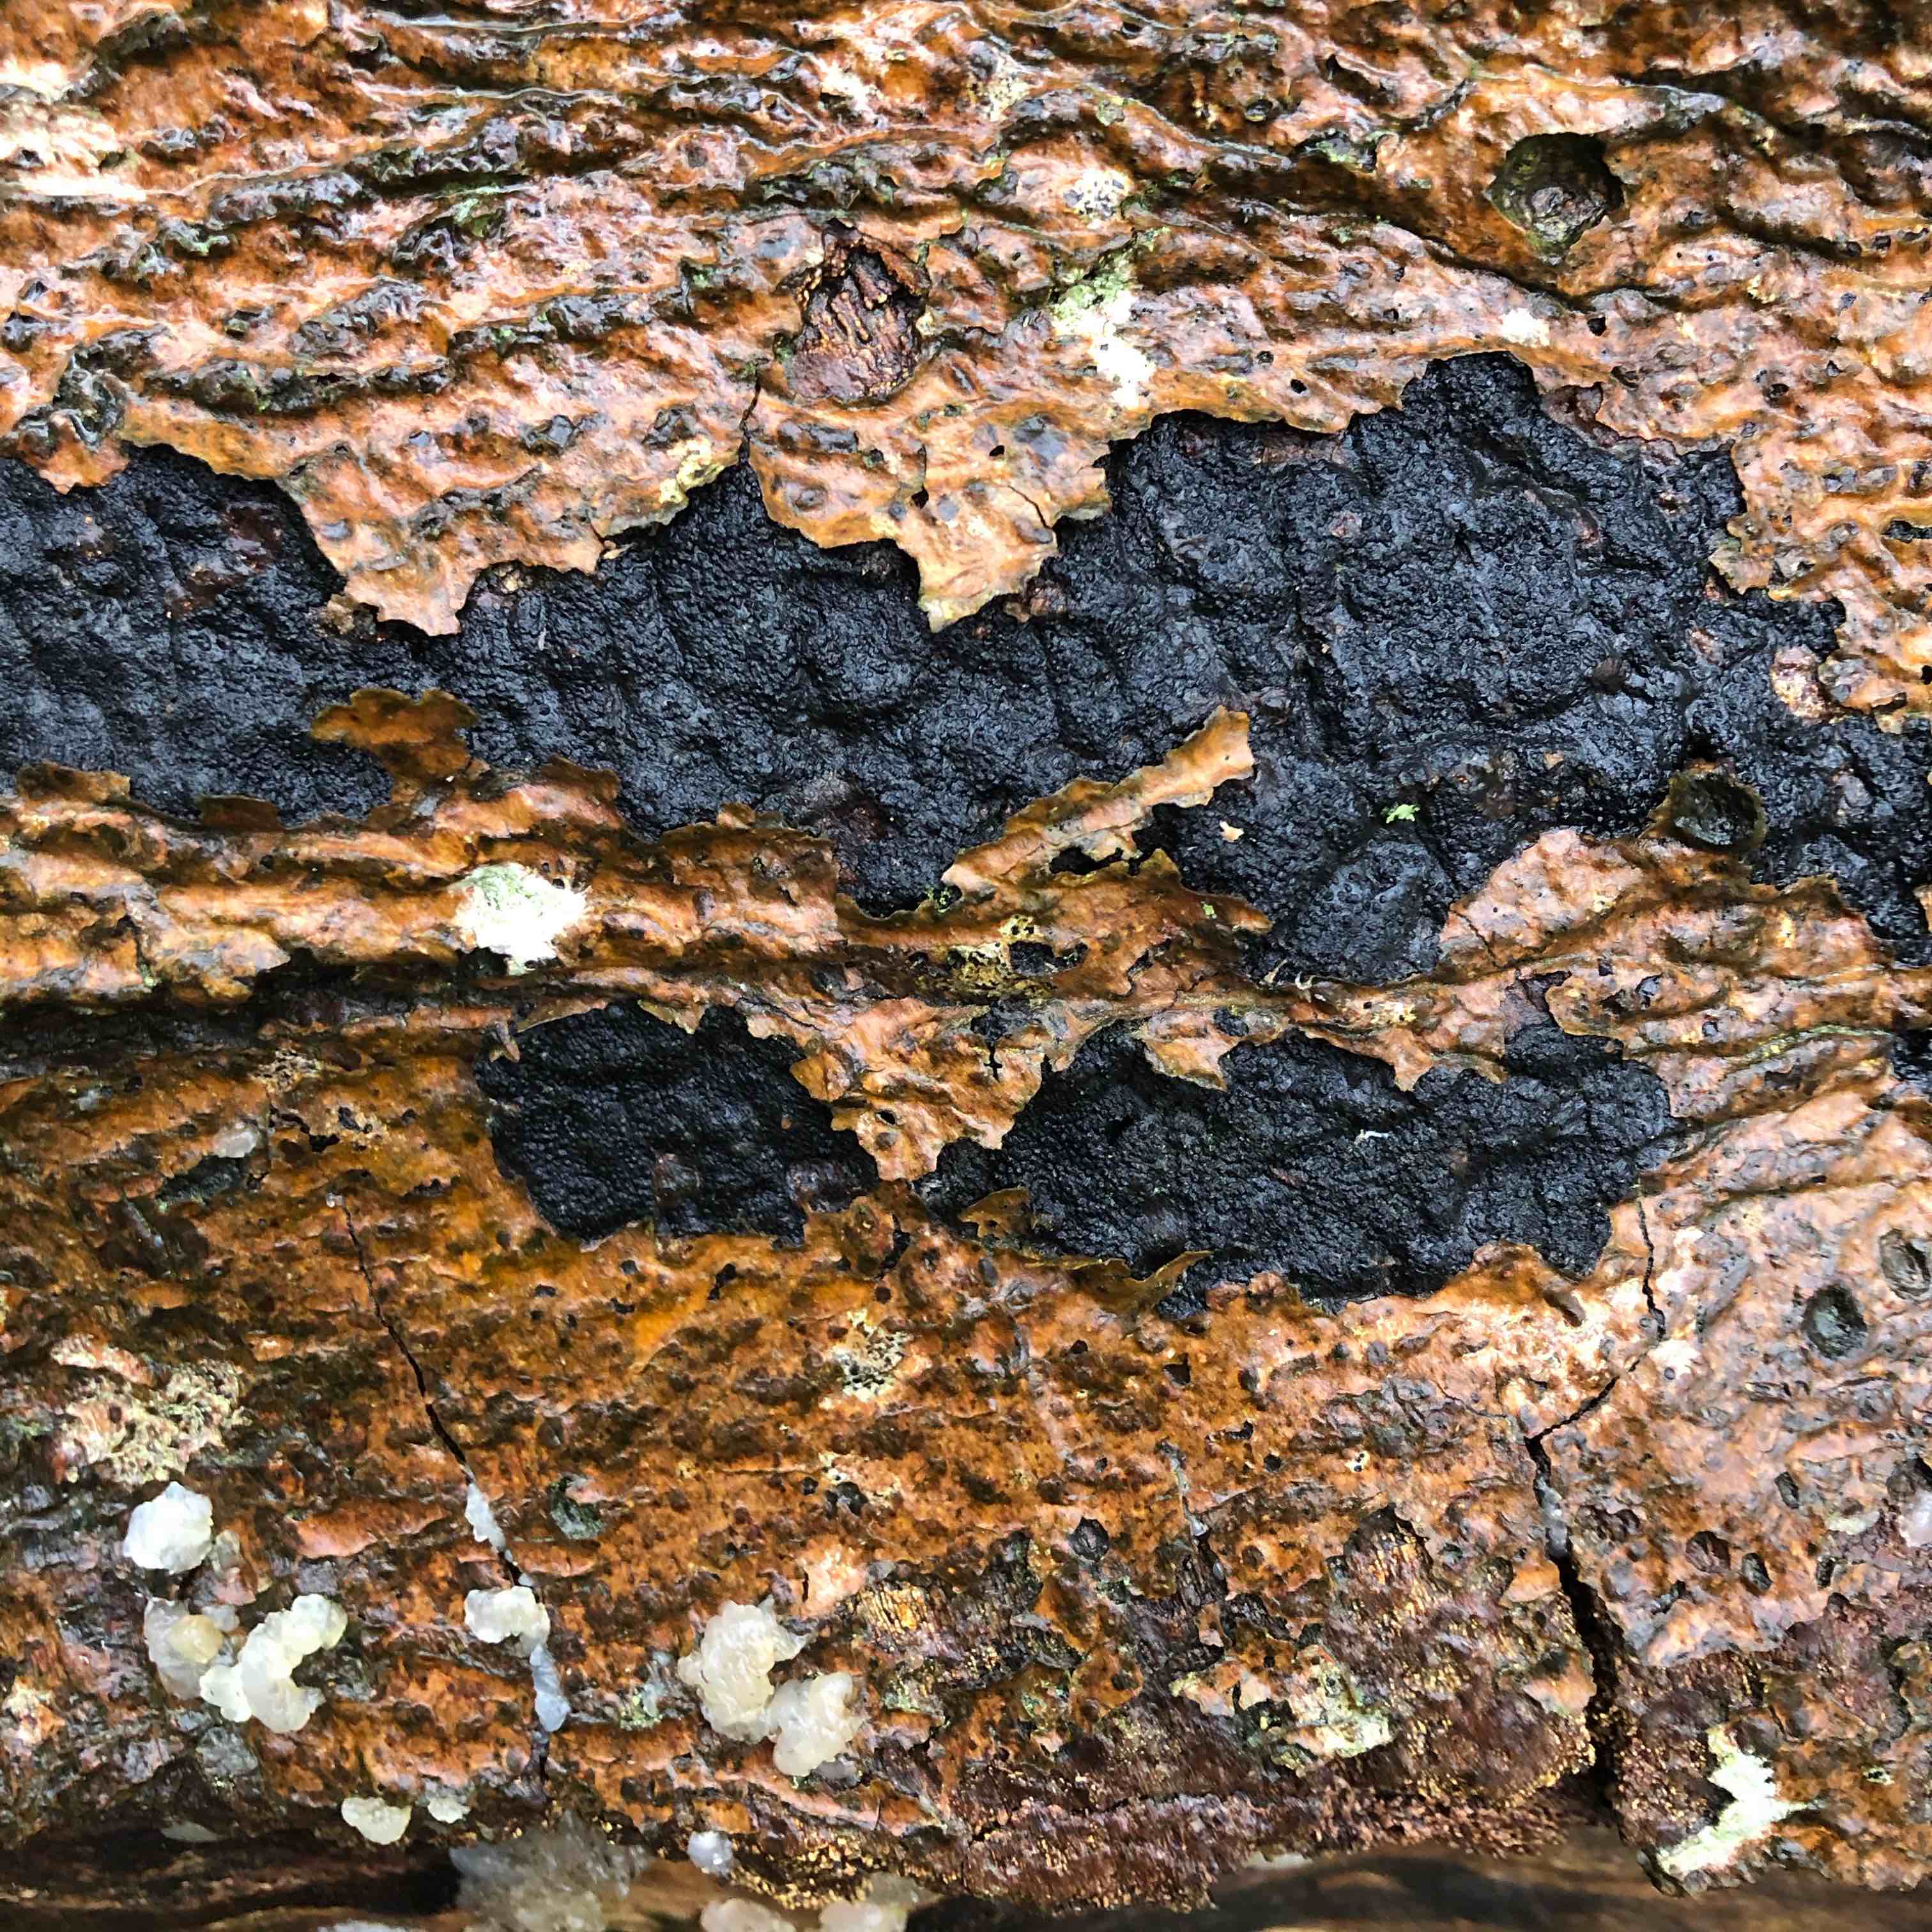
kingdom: Fungi
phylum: Ascomycota
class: Sordariomycetes
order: Xylariales
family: Diatrypaceae
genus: Eutypa
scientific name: Eutypa spinosa
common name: grov kulskorpe
